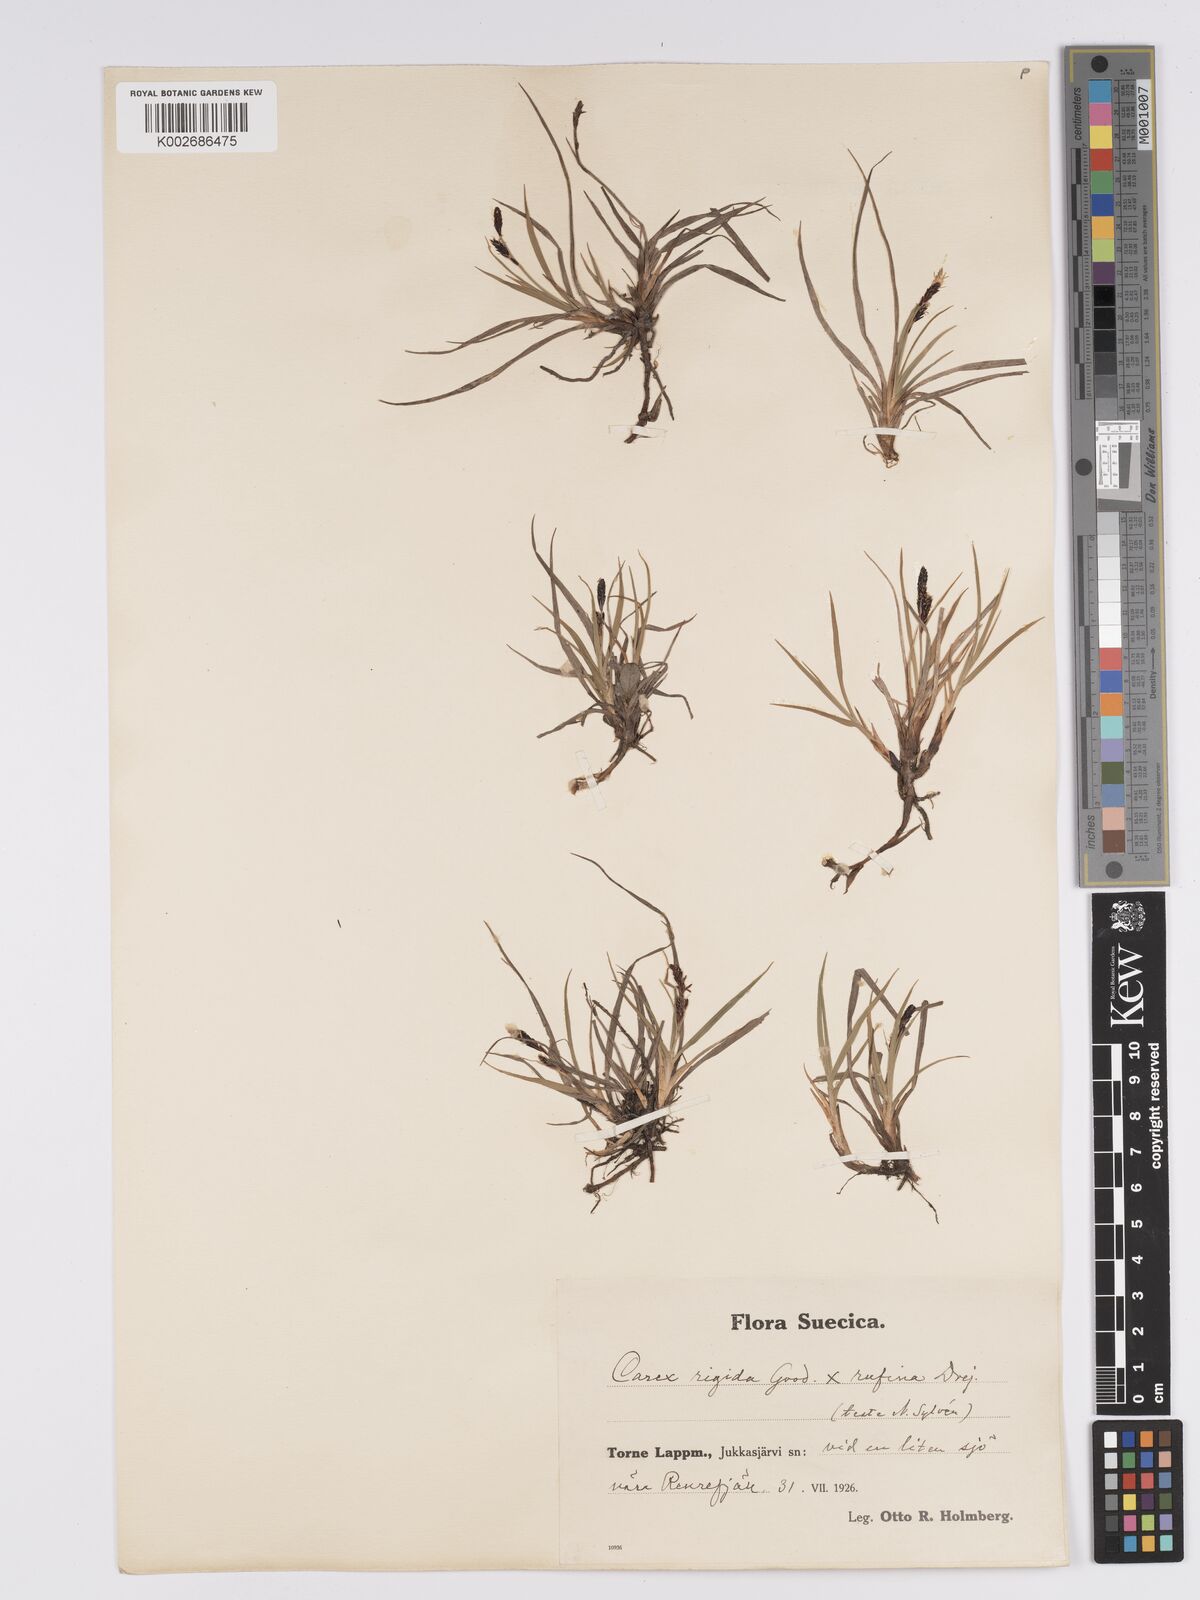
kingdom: Plantae
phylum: Tracheophyta
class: Liliopsida
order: Poales
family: Cyperaceae
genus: Carex
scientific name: Carex bigelowii
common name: Stiff sedge
